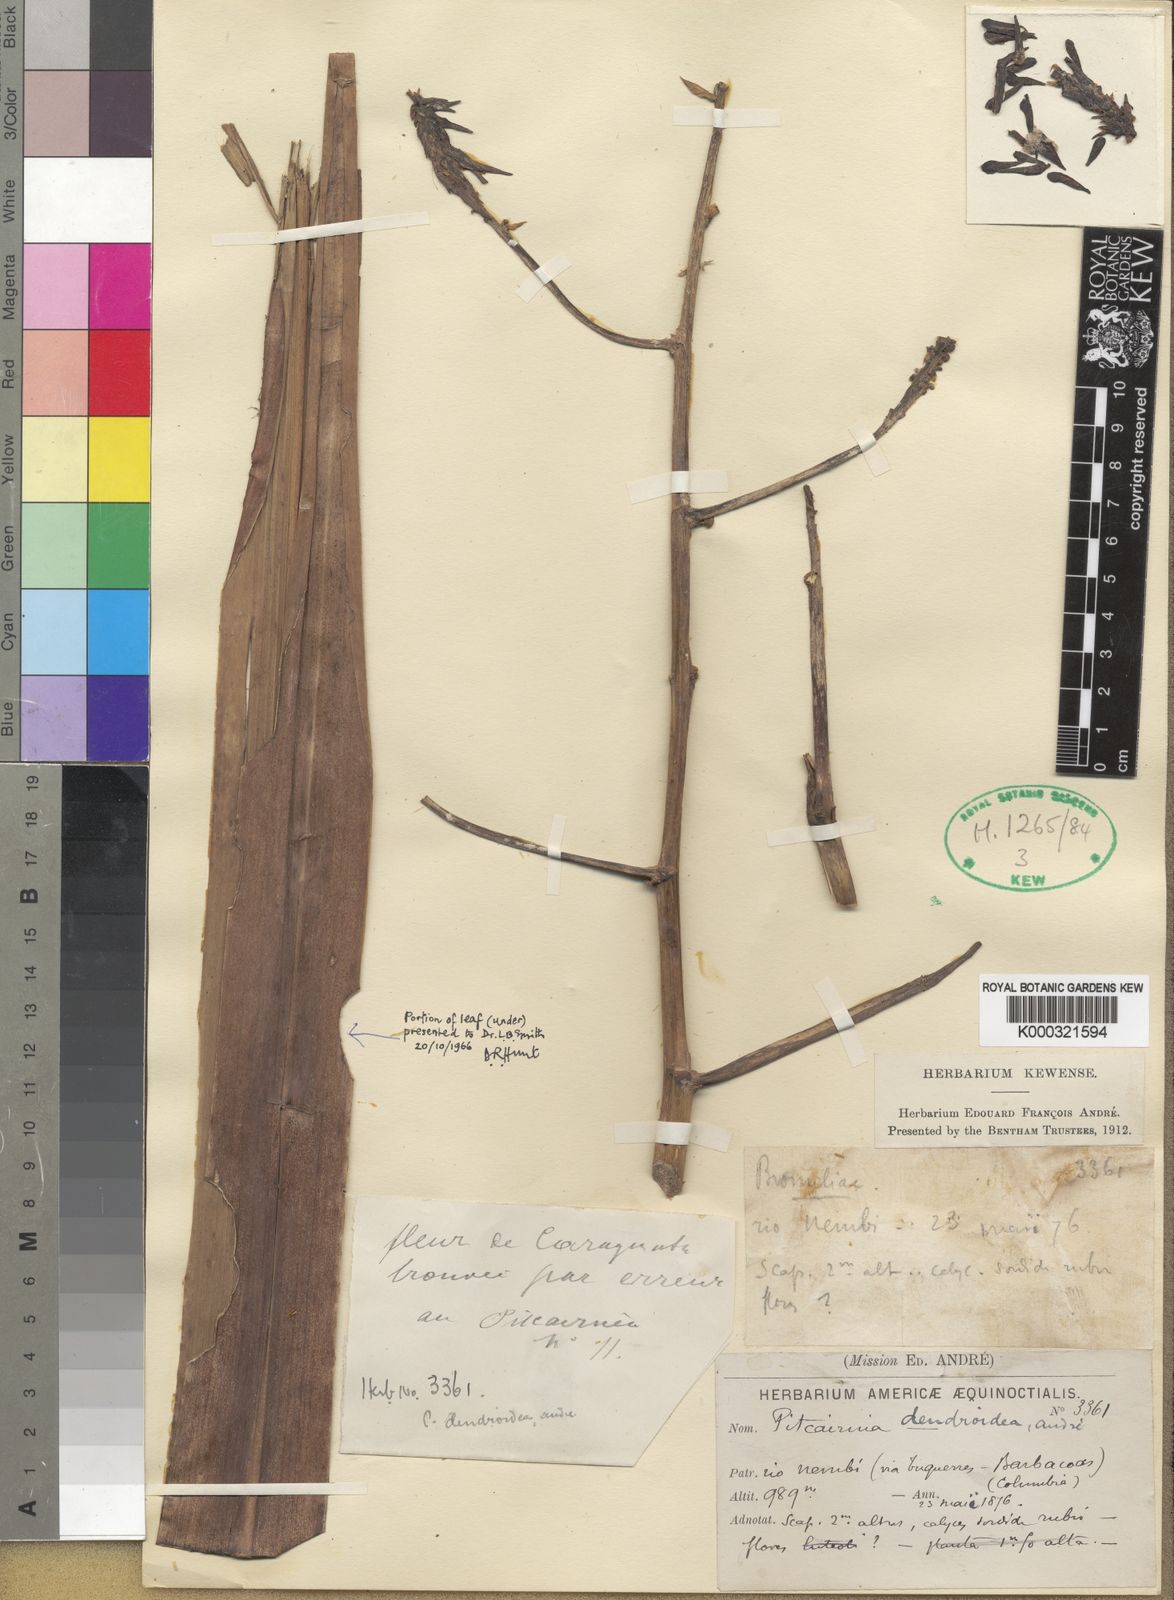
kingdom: Plantae
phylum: Tracheophyta
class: Liliopsida
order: Poales
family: Bromeliaceae
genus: Pitcairnia
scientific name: Pitcairnia dendroidea
